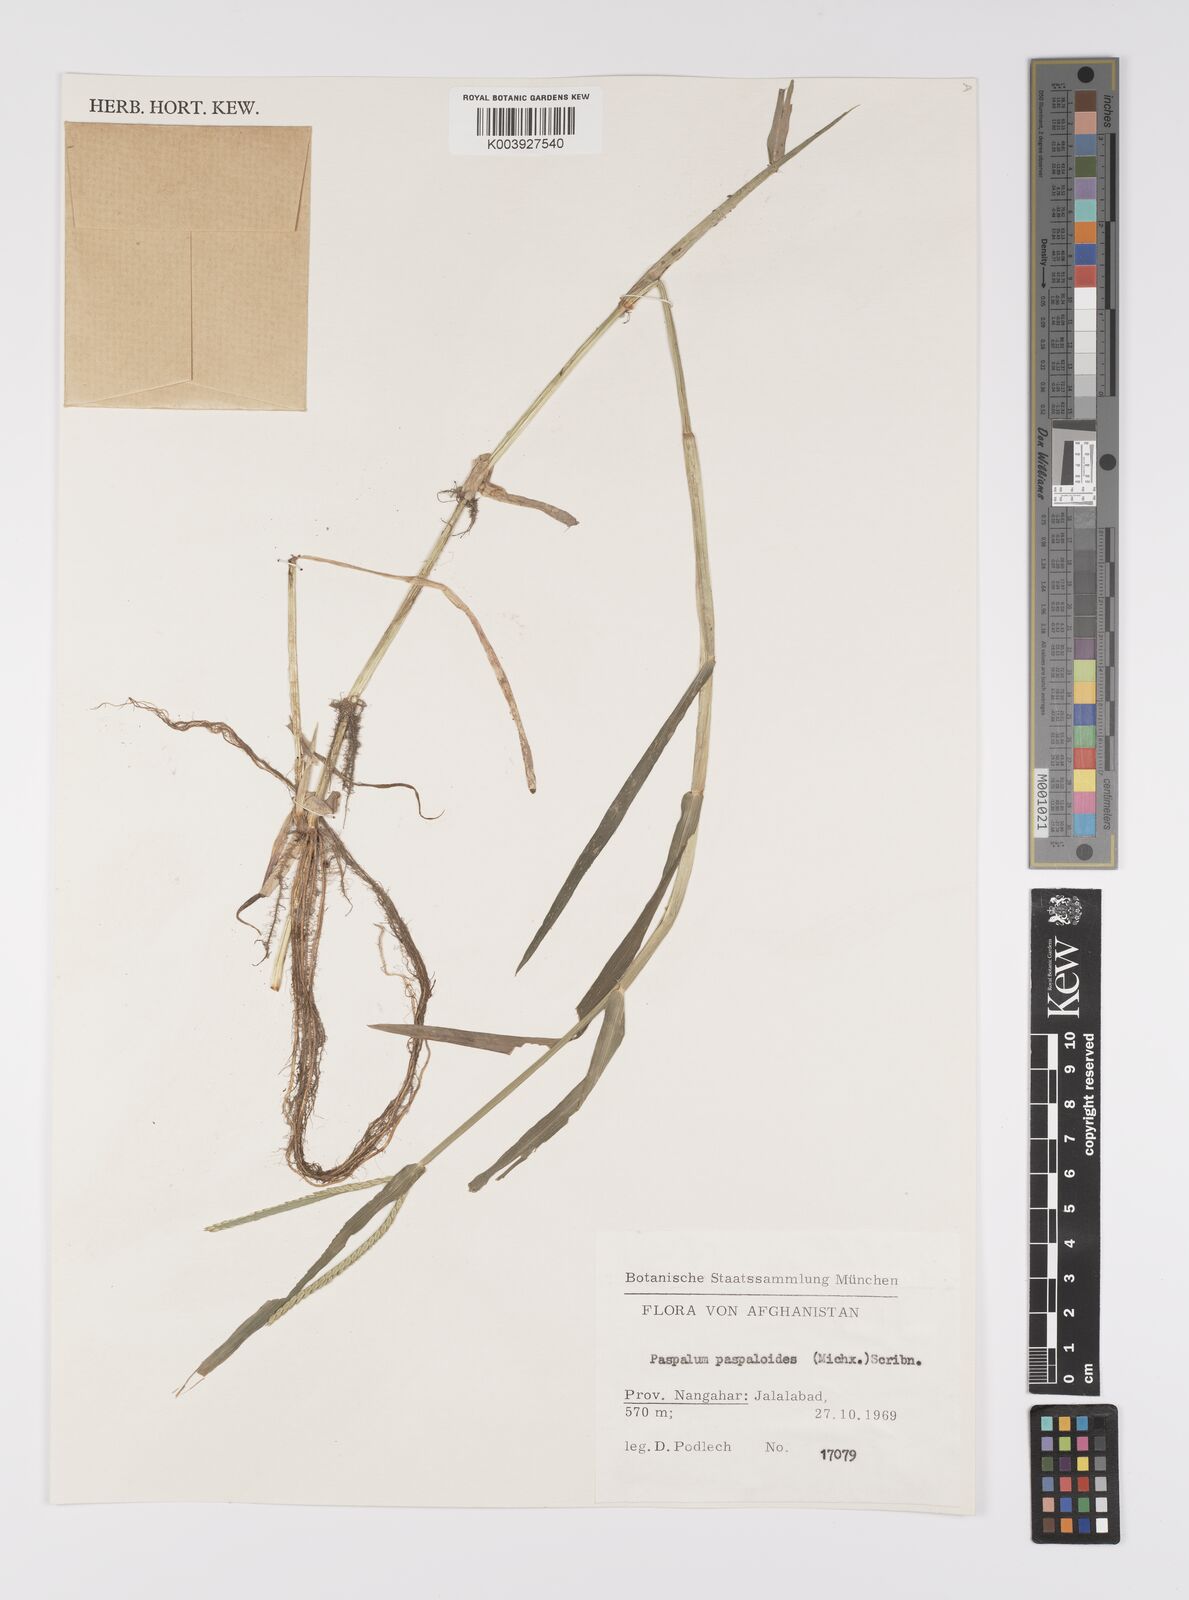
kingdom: Plantae
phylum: Tracheophyta
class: Liliopsida
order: Poales
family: Poaceae
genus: Paspalum
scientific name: Paspalum distichum
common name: Knotgrass
